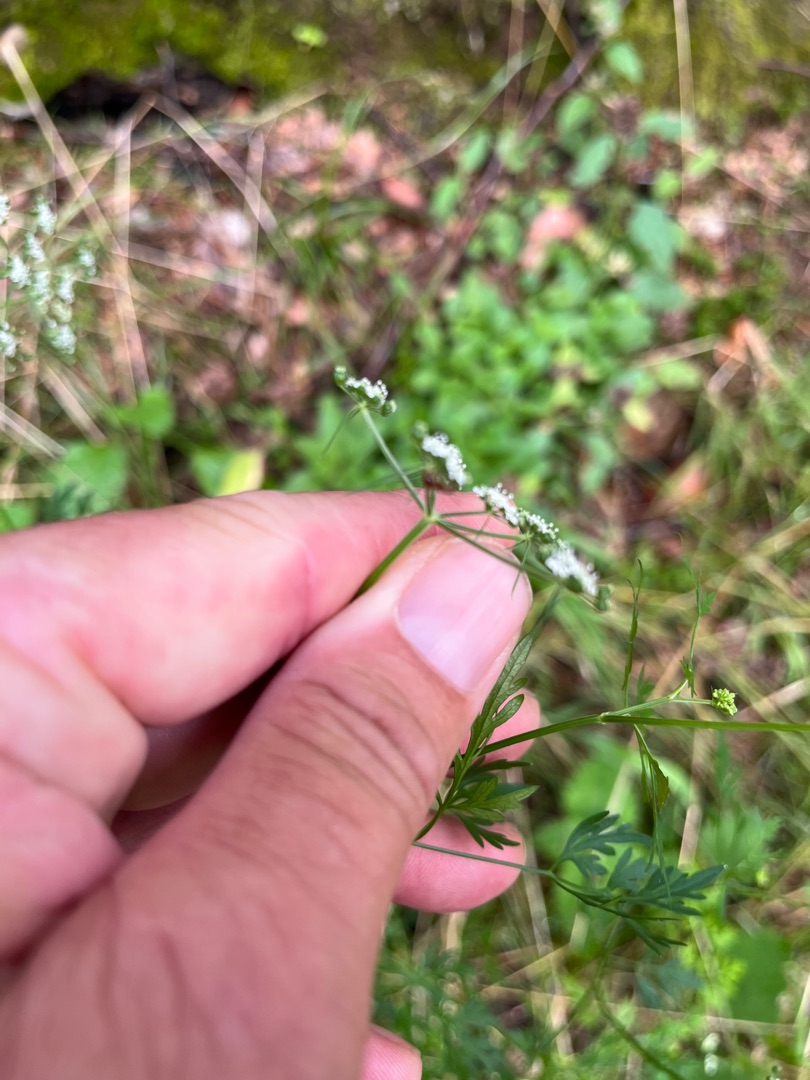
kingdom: Plantae
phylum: Tracheophyta
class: Magnoliopsida
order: Apiales
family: Apiaceae
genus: Aethusa
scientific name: Aethusa cynapium
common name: Hundepersille
